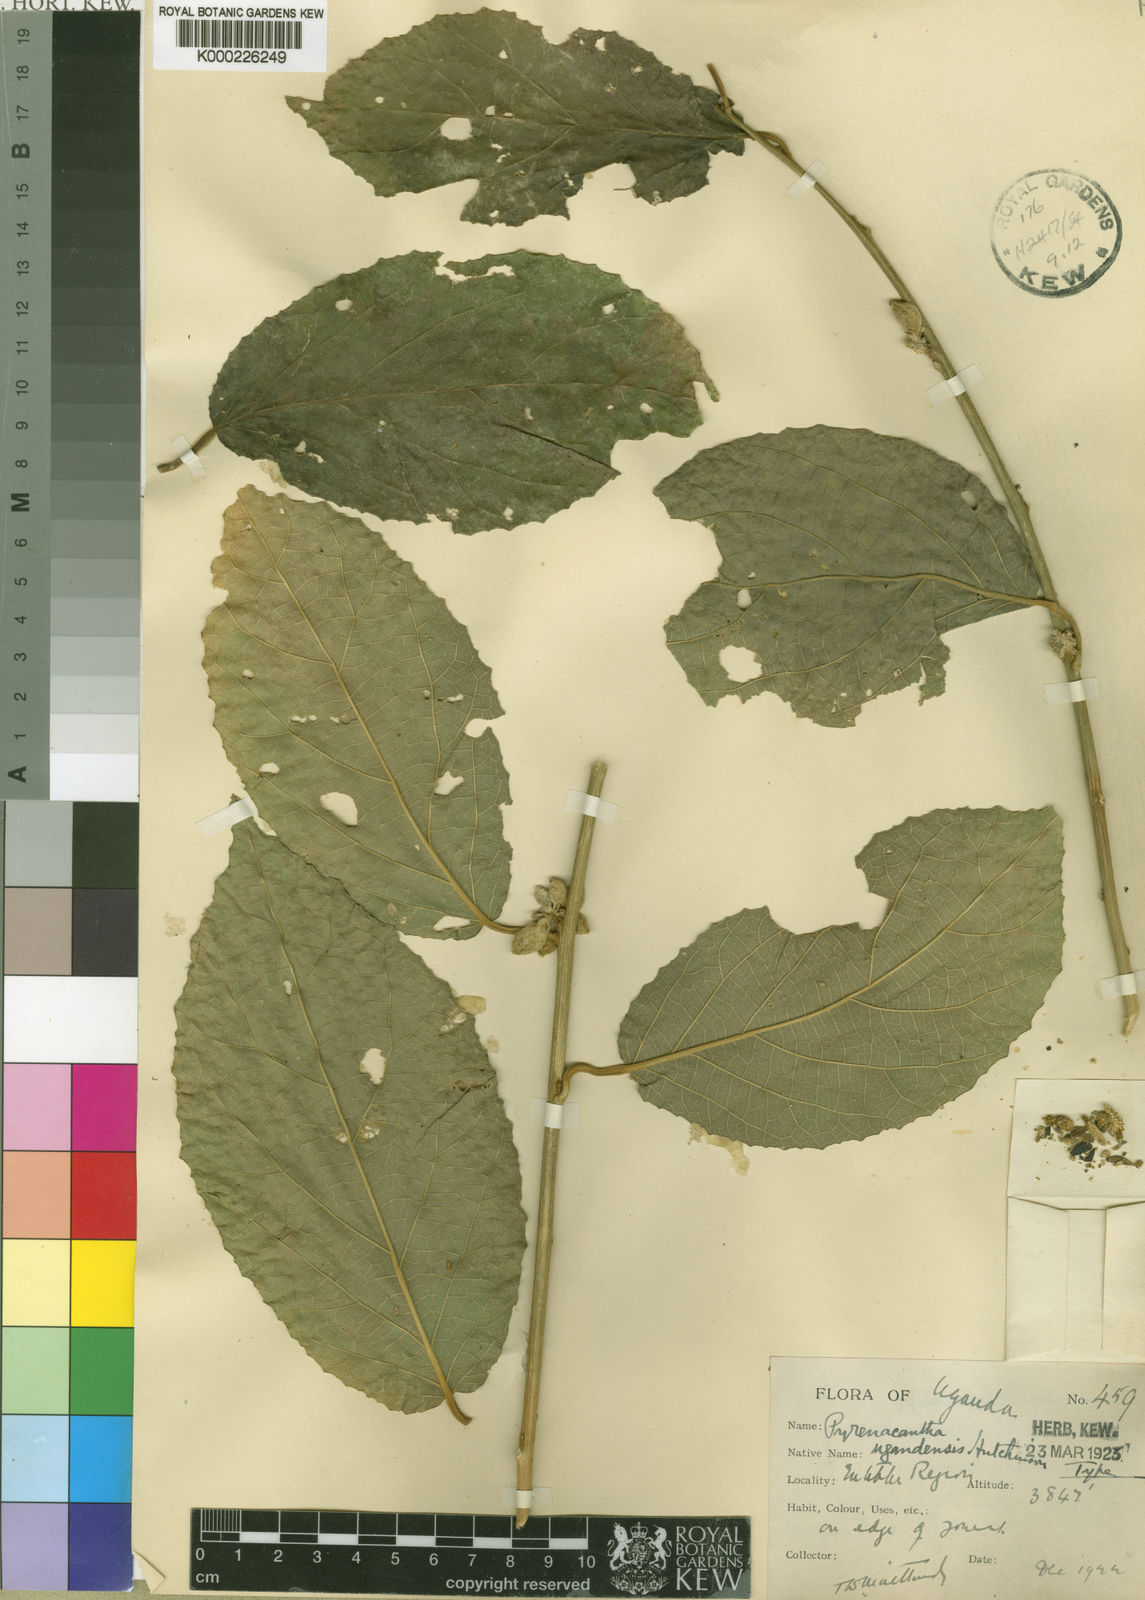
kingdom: Plantae
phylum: Tracheophyta
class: Magnoliopsida
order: Icacinales
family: Icacinaceae
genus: Pyrenacantha
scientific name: Pyrenacantha staudtii
